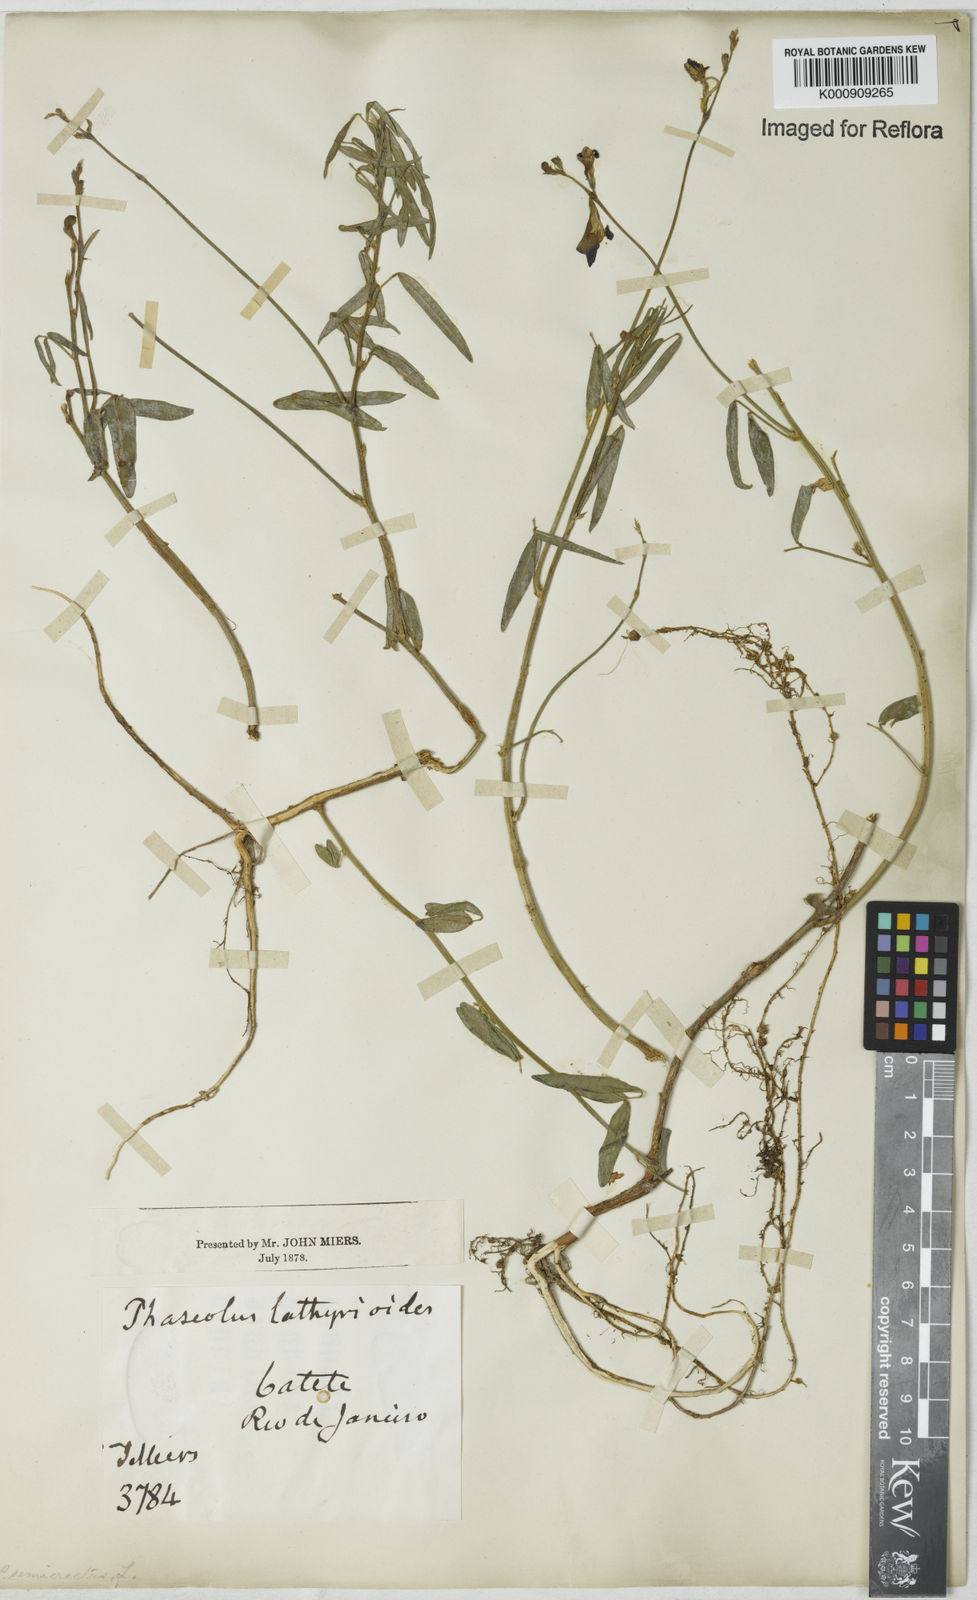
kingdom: Plantae
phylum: Tracheophyta
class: Magnoliopsida
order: Fabales
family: Fabaceae
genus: Macroptilium
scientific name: Macroptilium lathyroides
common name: Wild bushbean
